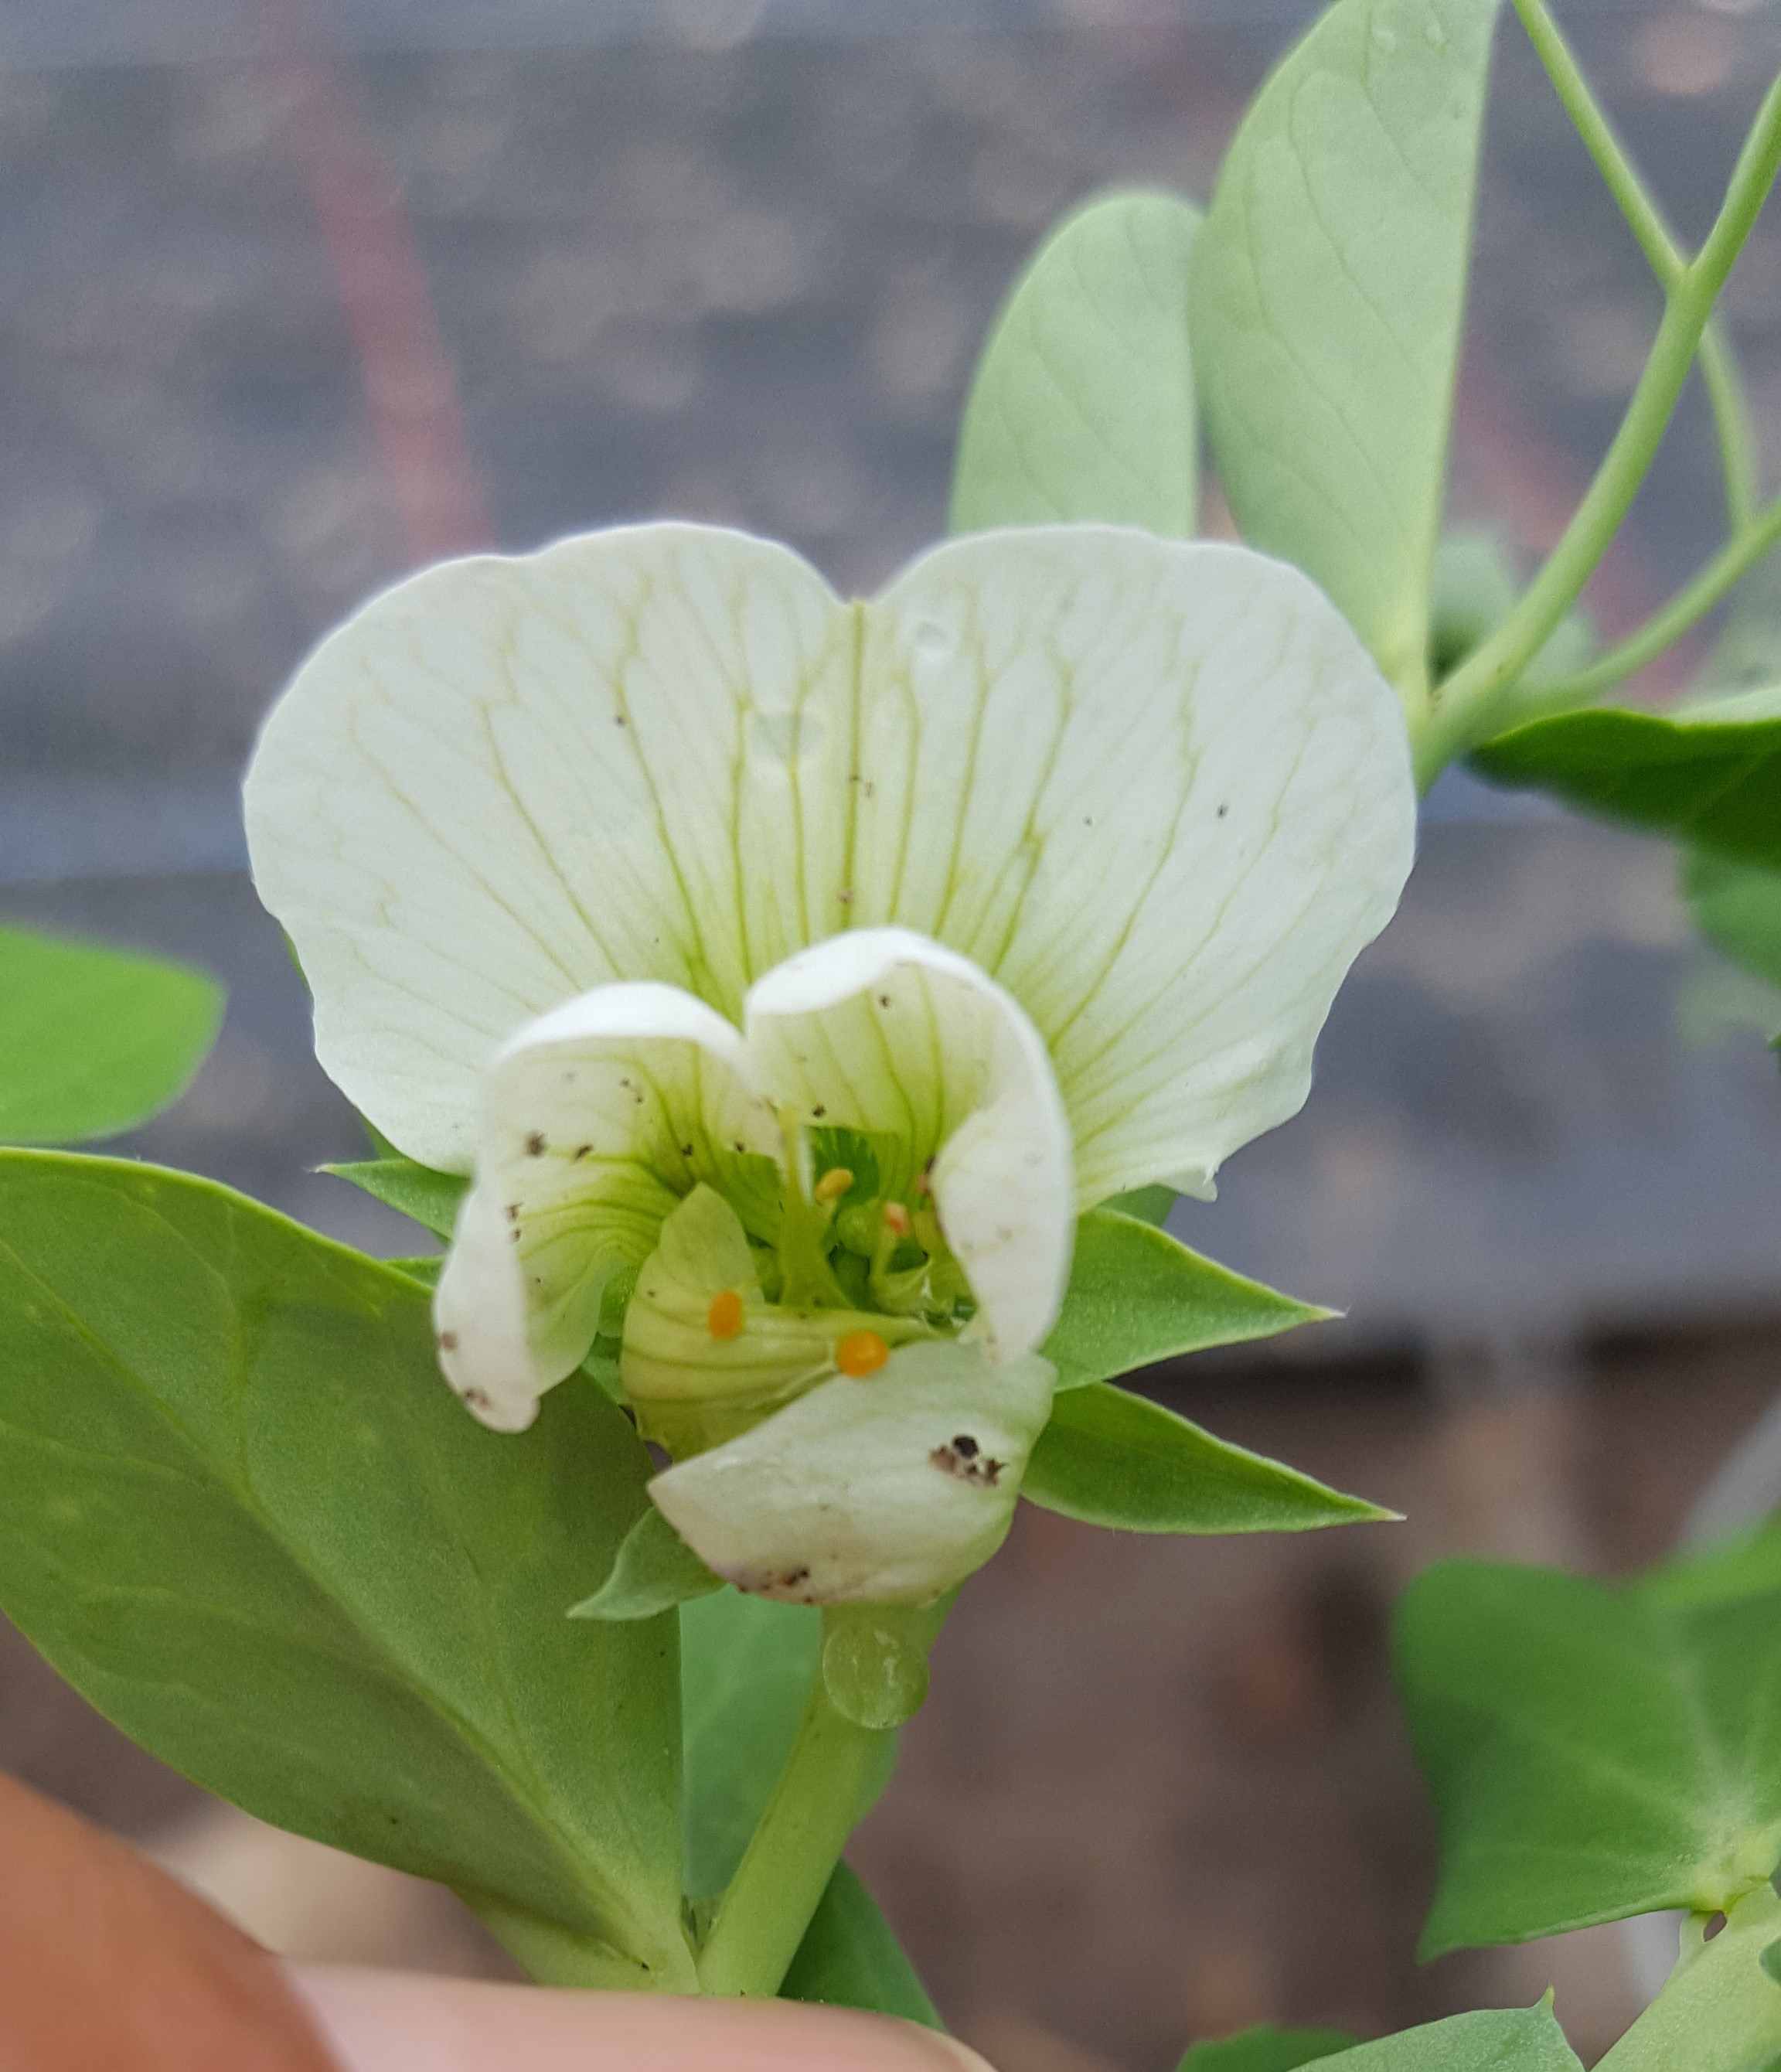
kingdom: Plantae
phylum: Tracheophyta
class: Magnoliopsida
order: Fabales
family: Fabaceae
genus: Lathyrus
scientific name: Lathyrus oleraceus
